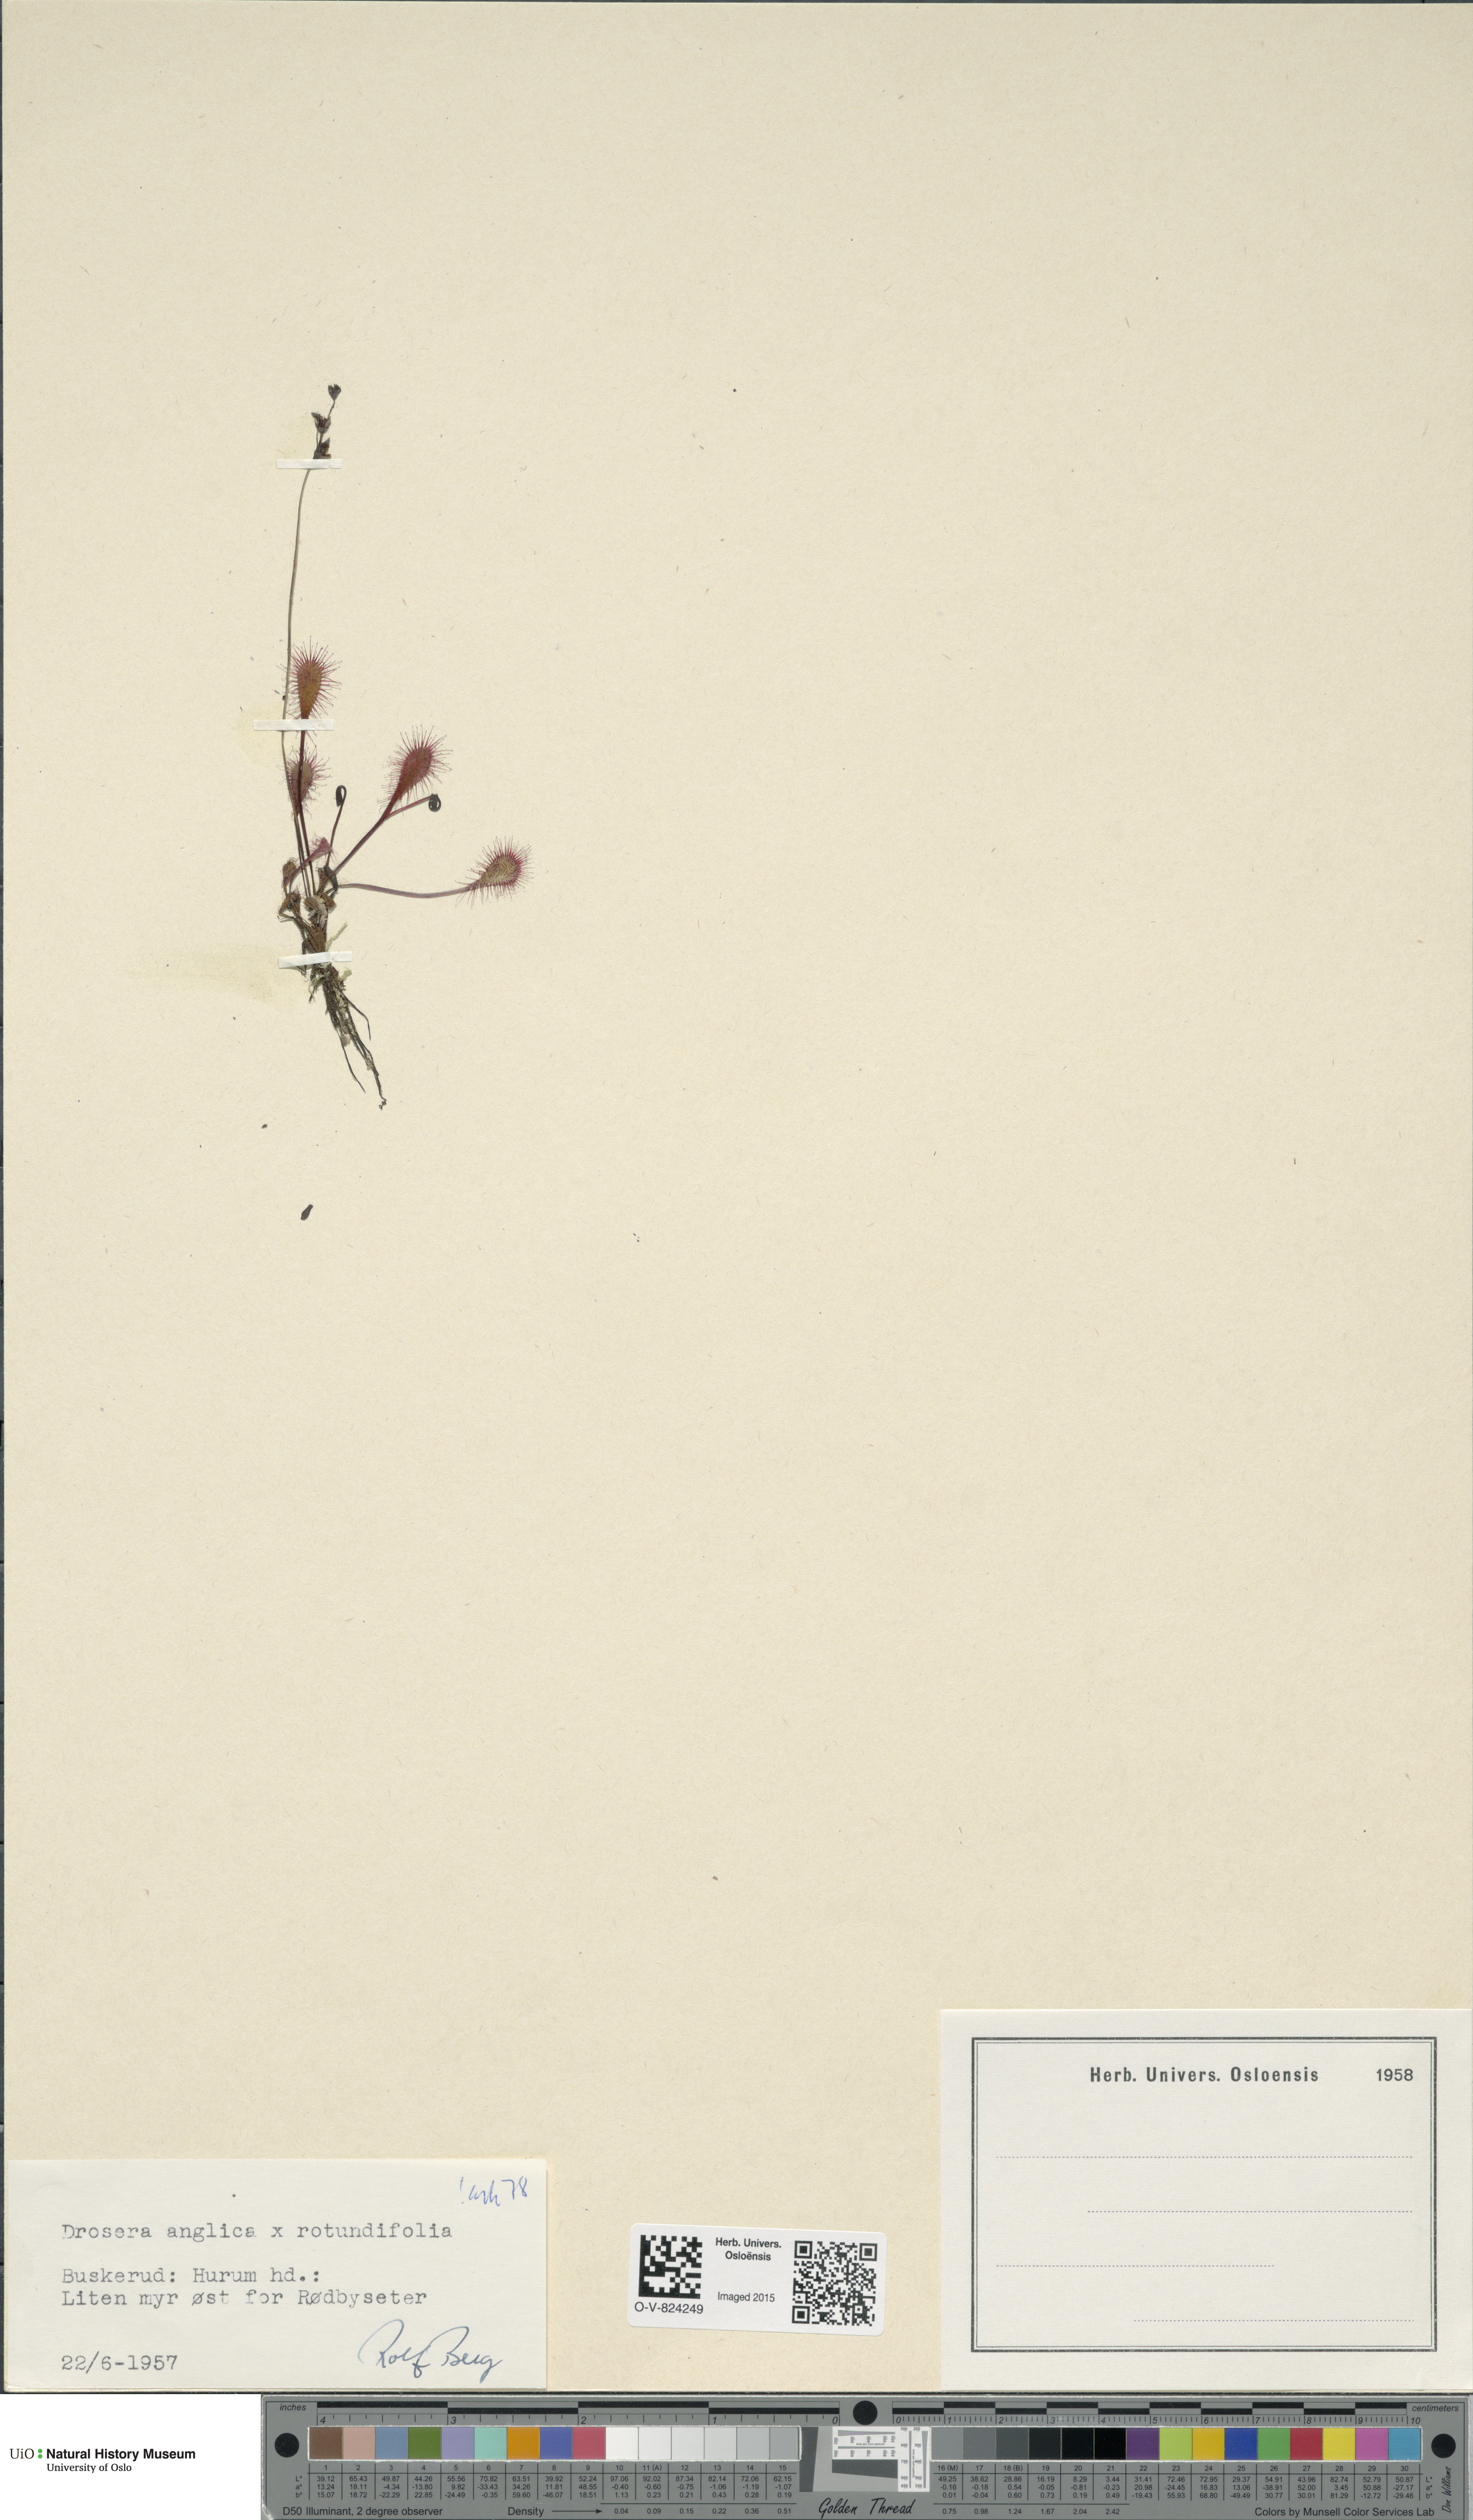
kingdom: Plantae
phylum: Tracheophyta
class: Magnoliopsida
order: Caryophyllales
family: Droseraceae
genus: Drosera
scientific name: Drosera
